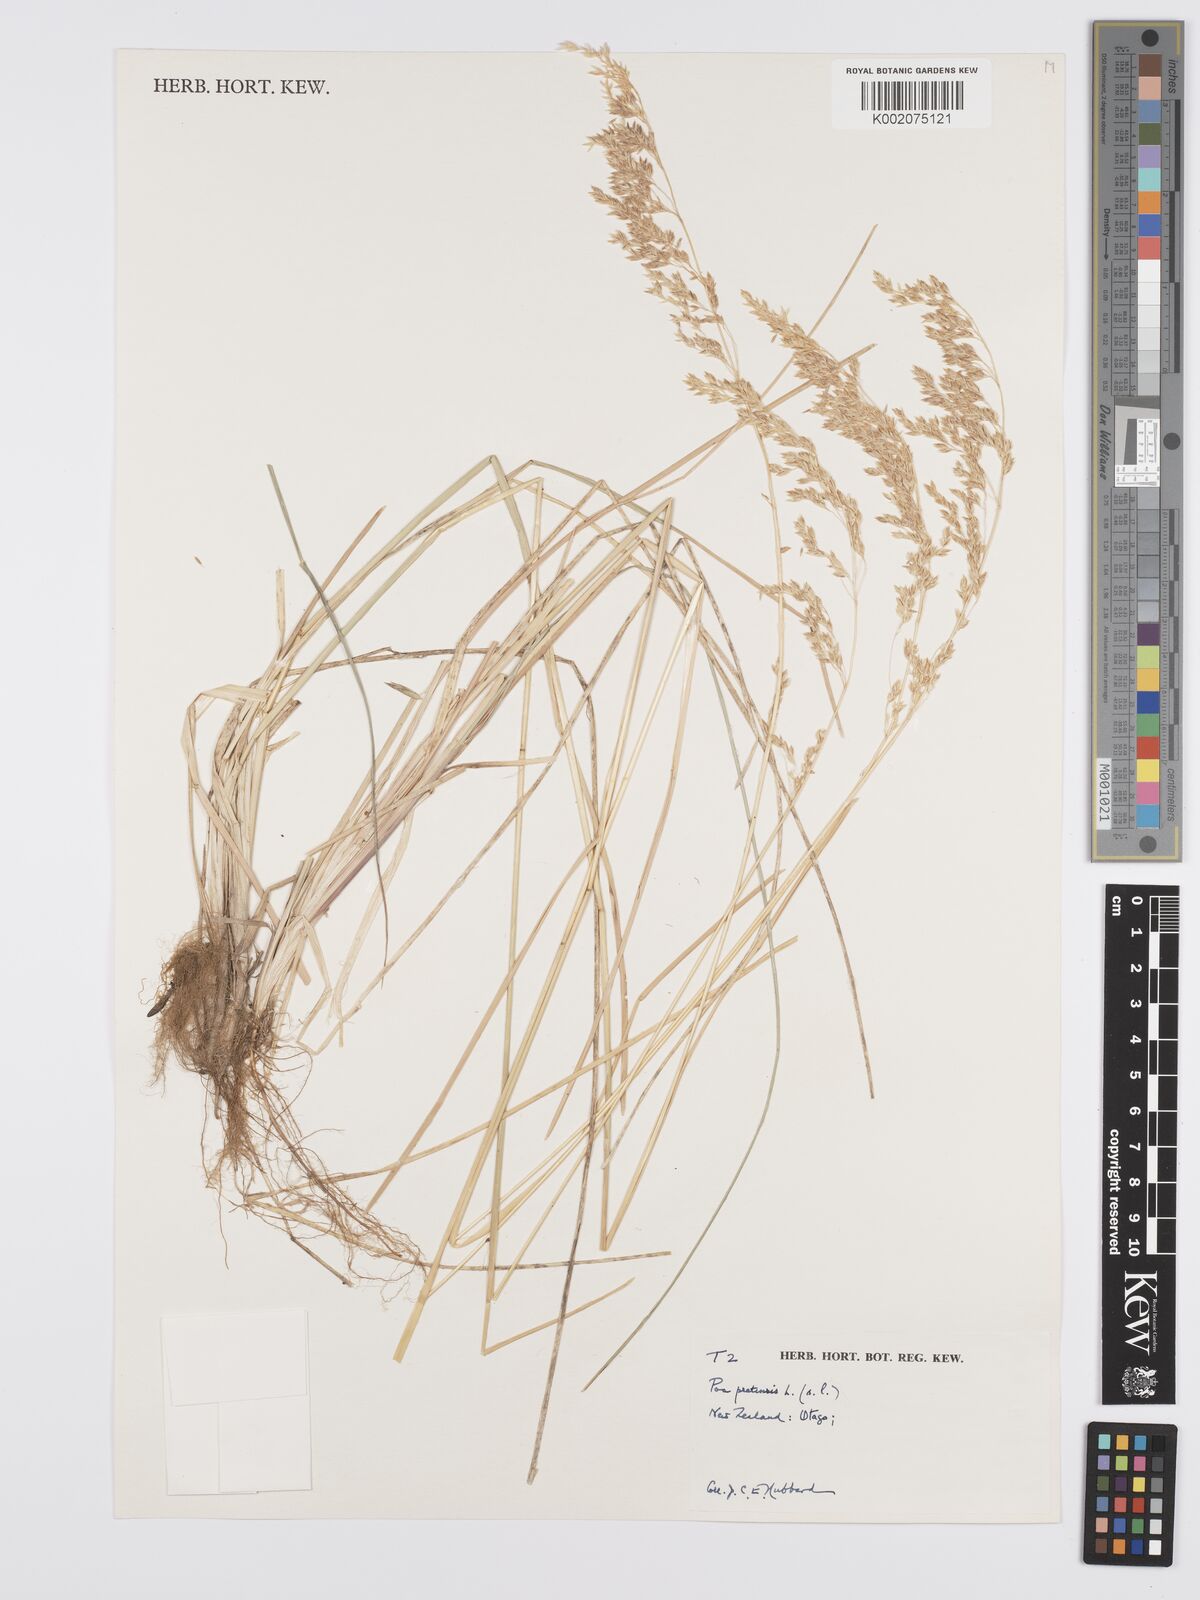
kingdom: Plantae
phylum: Tracheophyta
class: Liliopsida
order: Poales
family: Poaceae
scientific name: Poaceae
